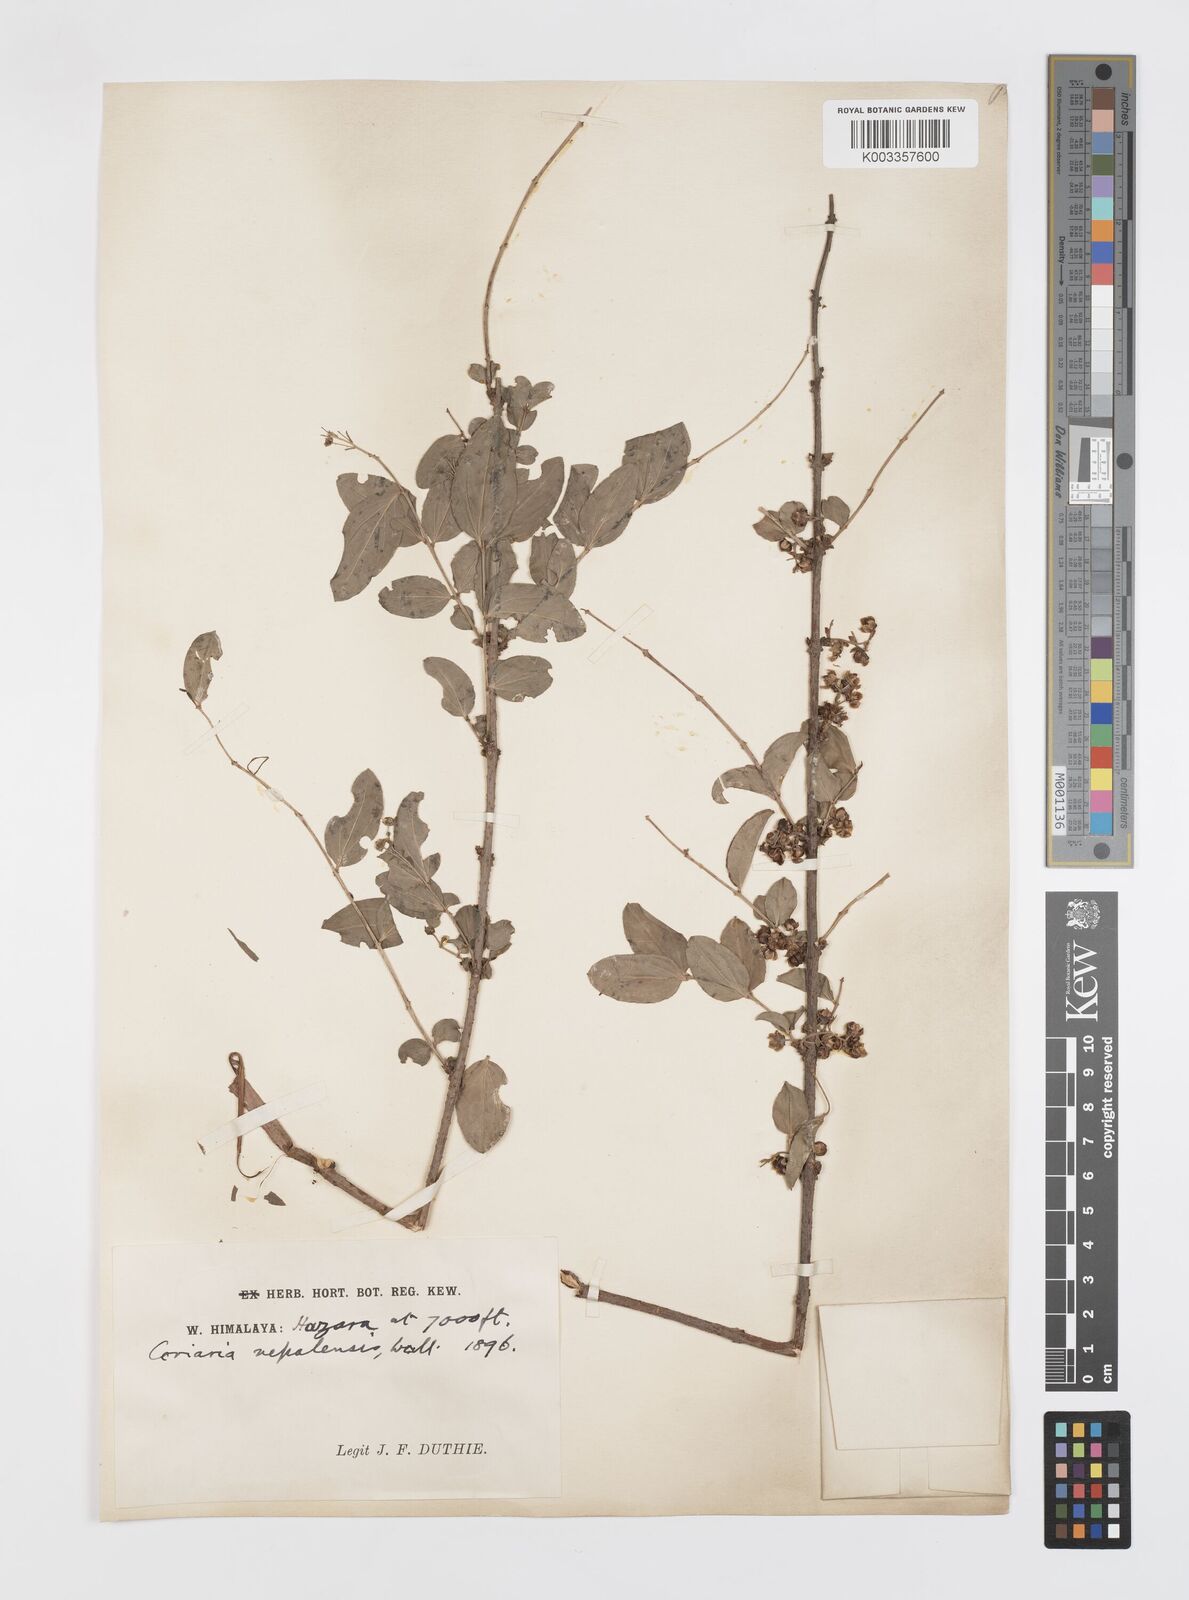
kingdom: Plantae
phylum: Tracheophyta
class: Magnoliopsida
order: Cucurbitales
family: Coriariaceae
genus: Coriaria
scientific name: Coriaria napalensis
